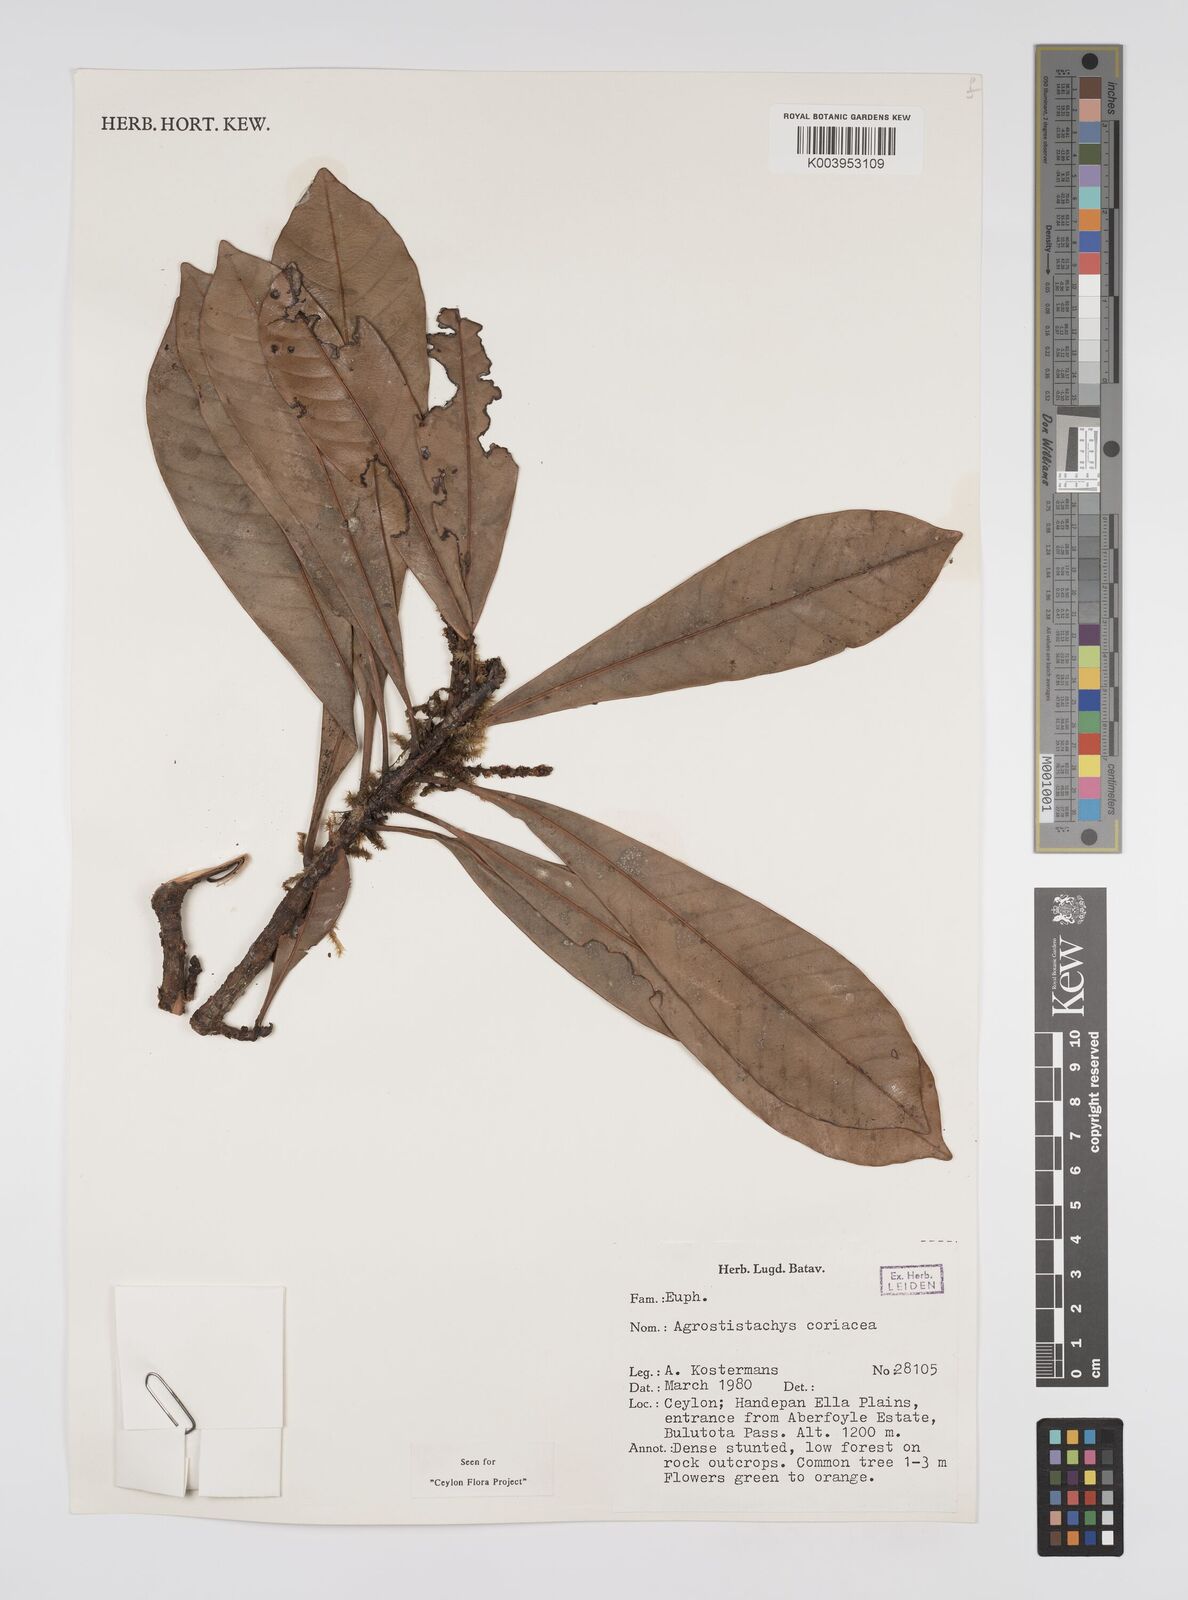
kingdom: Plantae
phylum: Tracheophyta
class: Magnoliopsida
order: Malpighiales
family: Euphorbiaceae
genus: Agrostistachys
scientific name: Agrostistachys borneensis
